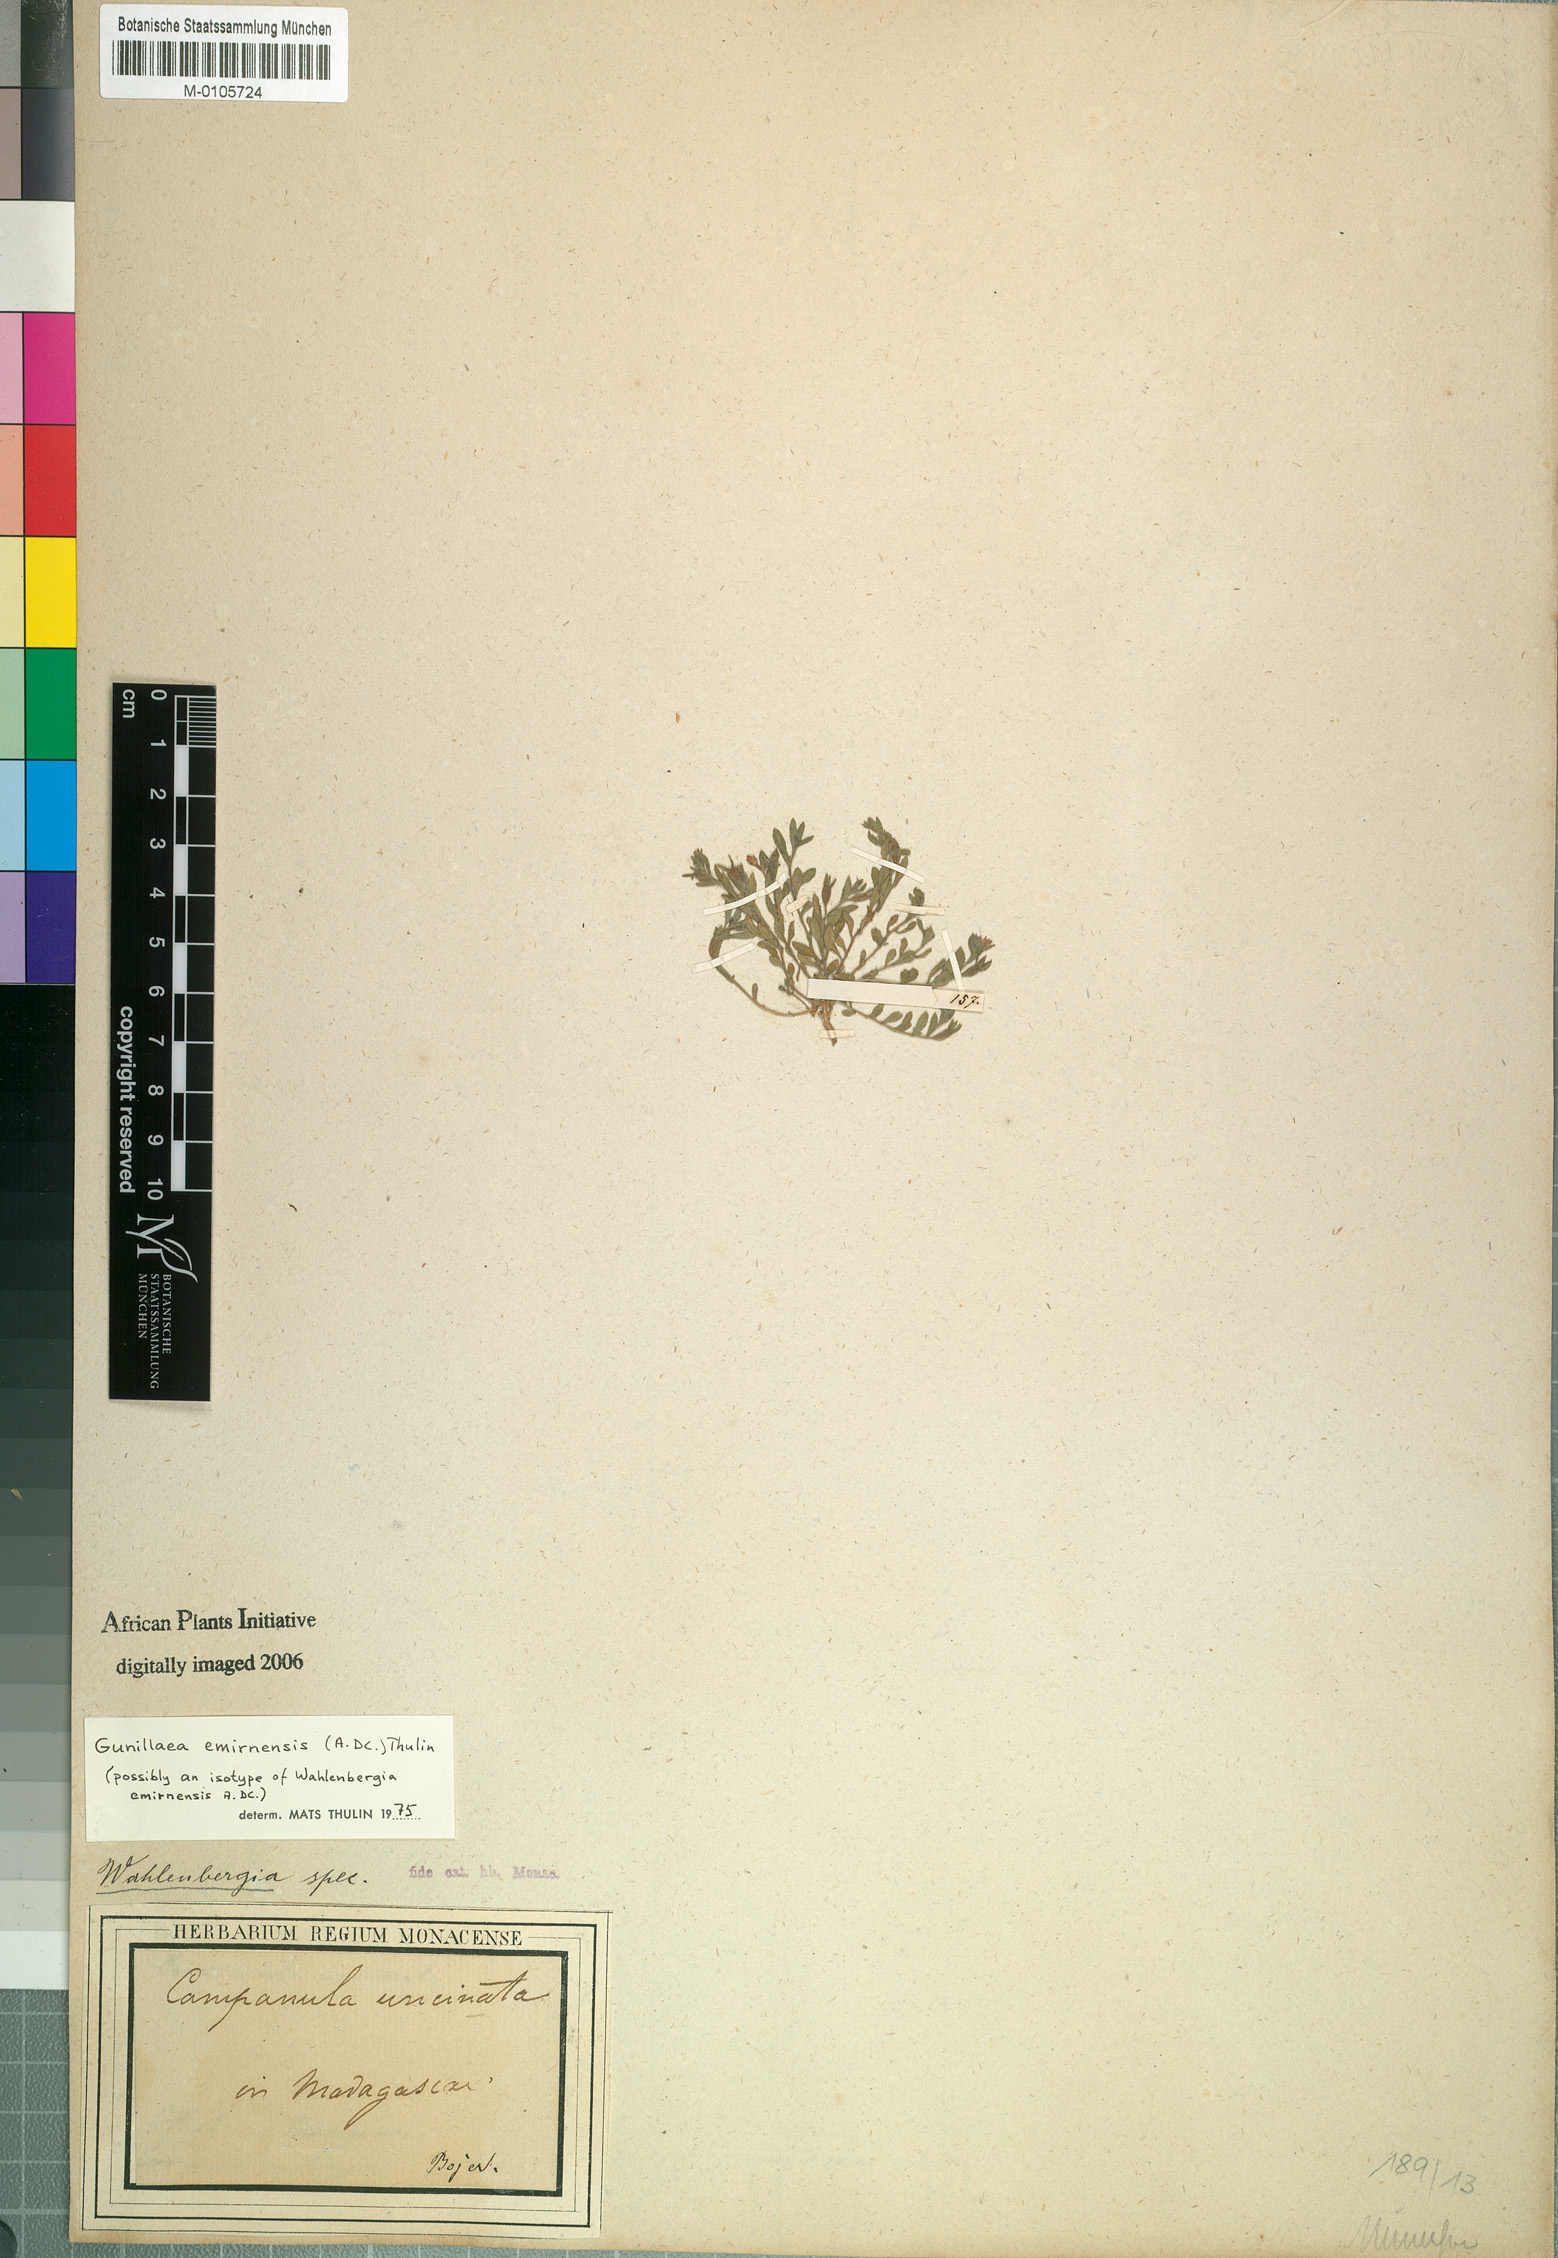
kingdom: Plantae
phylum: Tracheophyta
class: Magnoliopsida
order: Asterales
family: Campanulaceae
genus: Gunillaea
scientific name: Gunillaea emirnensis
